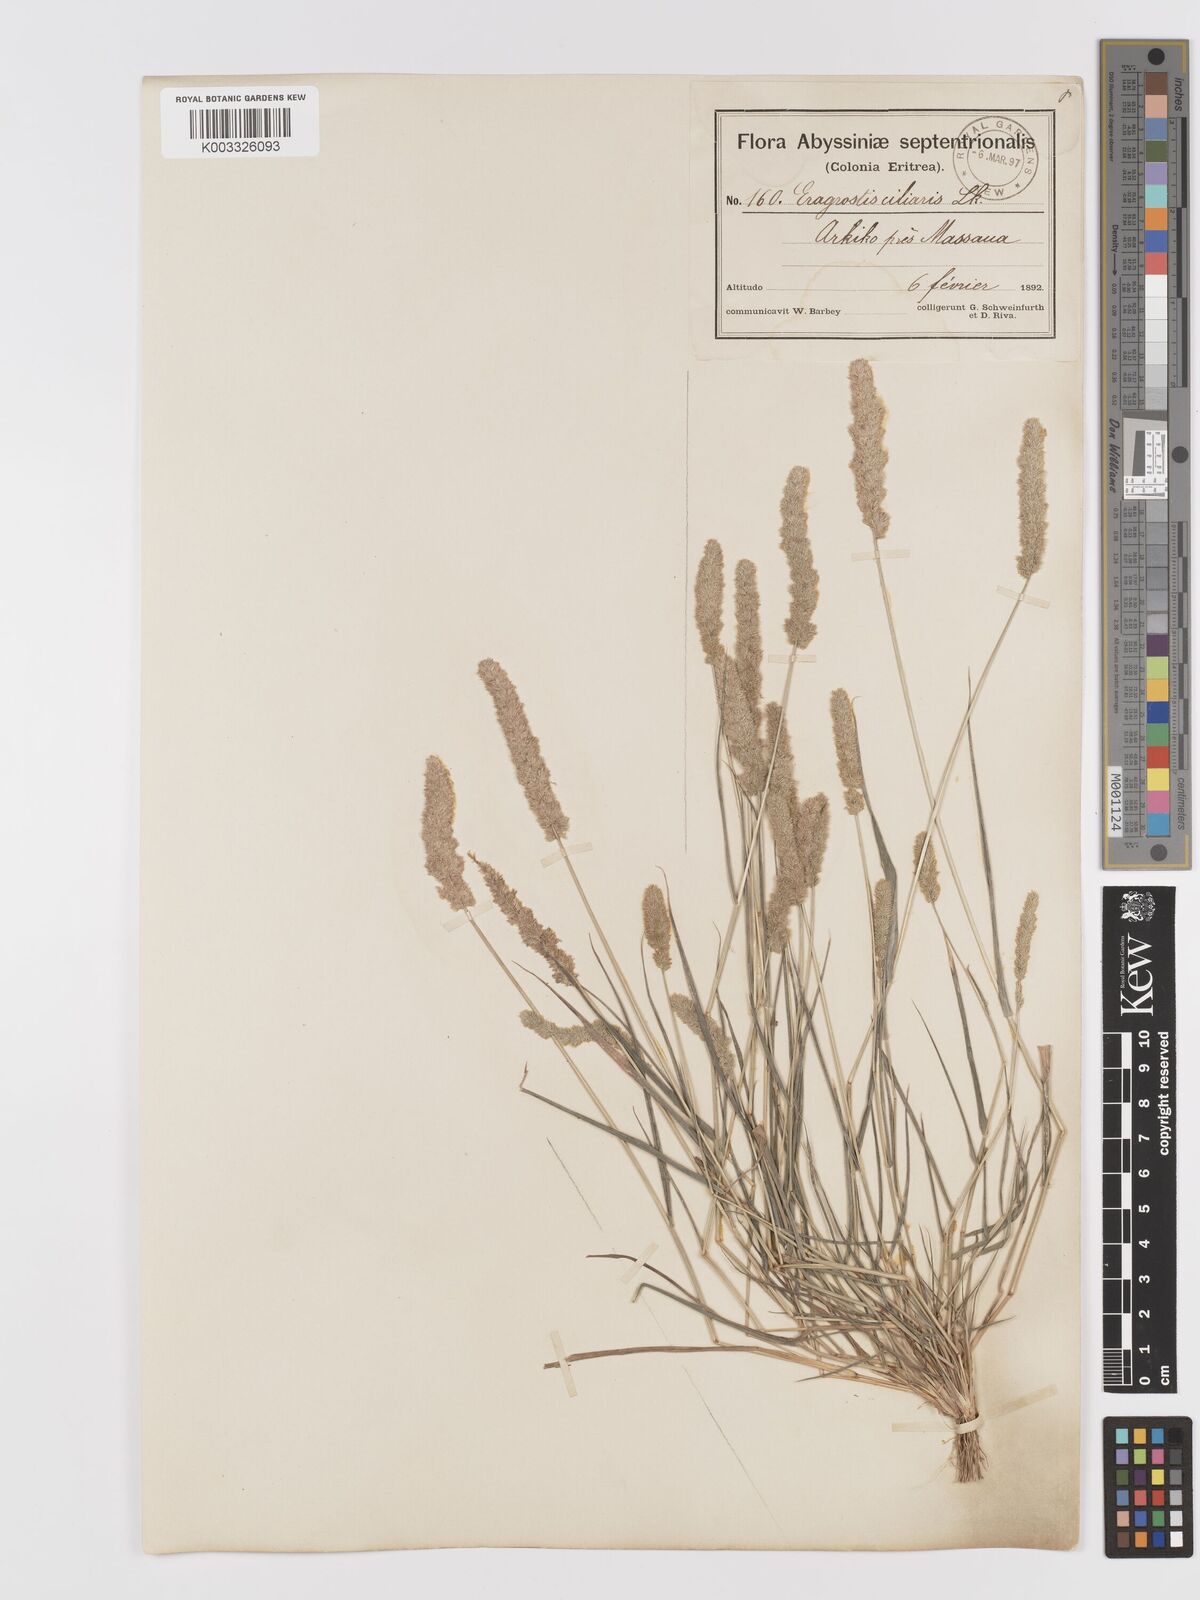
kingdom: Plantae
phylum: Tracheophyta
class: Liliopsida
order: Poales
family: Poaceae
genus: Eragrostis
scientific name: Eragrostis ciliaris
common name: Gophertail lovegrass
